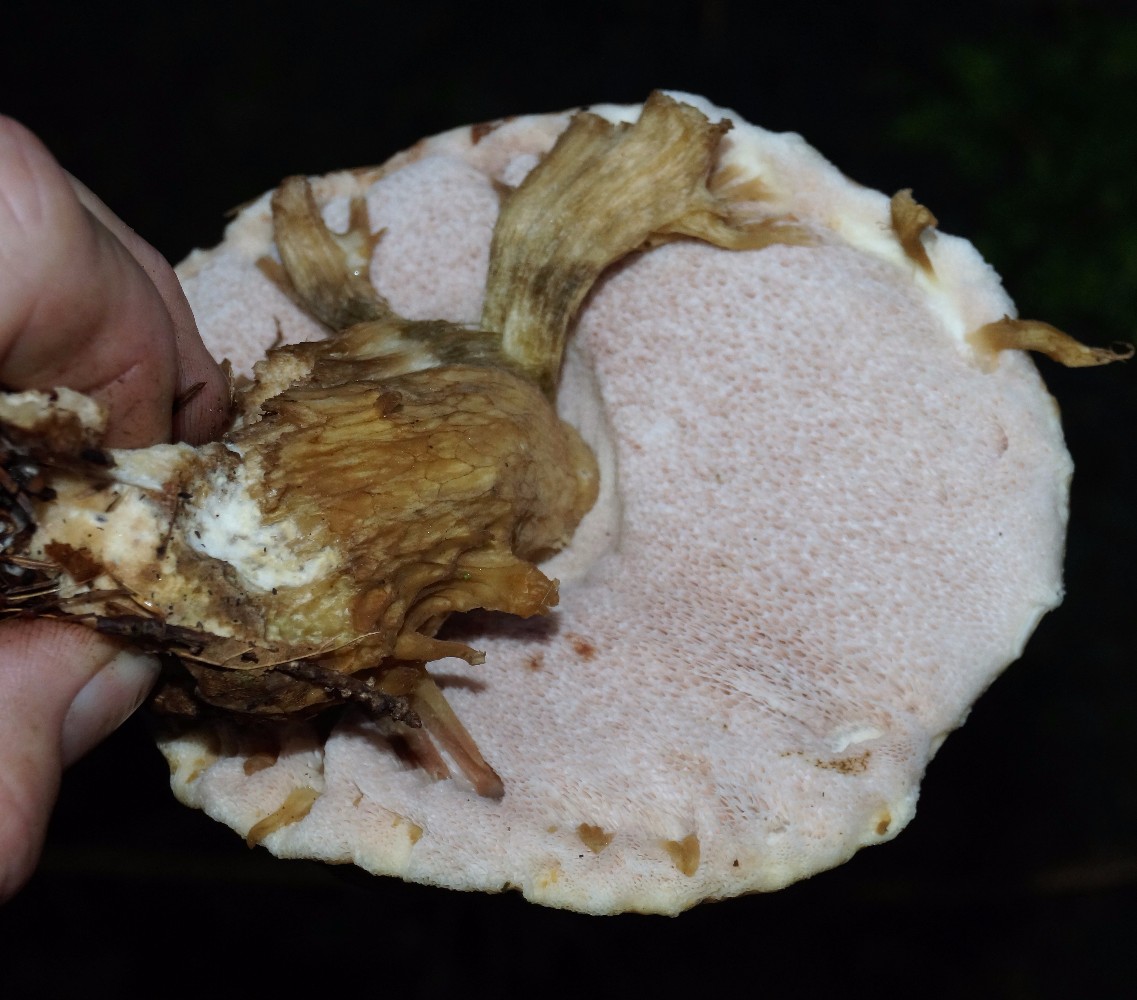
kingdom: Fungi
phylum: Basidiomycota
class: Agaricomycetes
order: Boletales
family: Boletaceae
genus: Tylopilus
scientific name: Tylopilus felleus
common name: galderørhat
